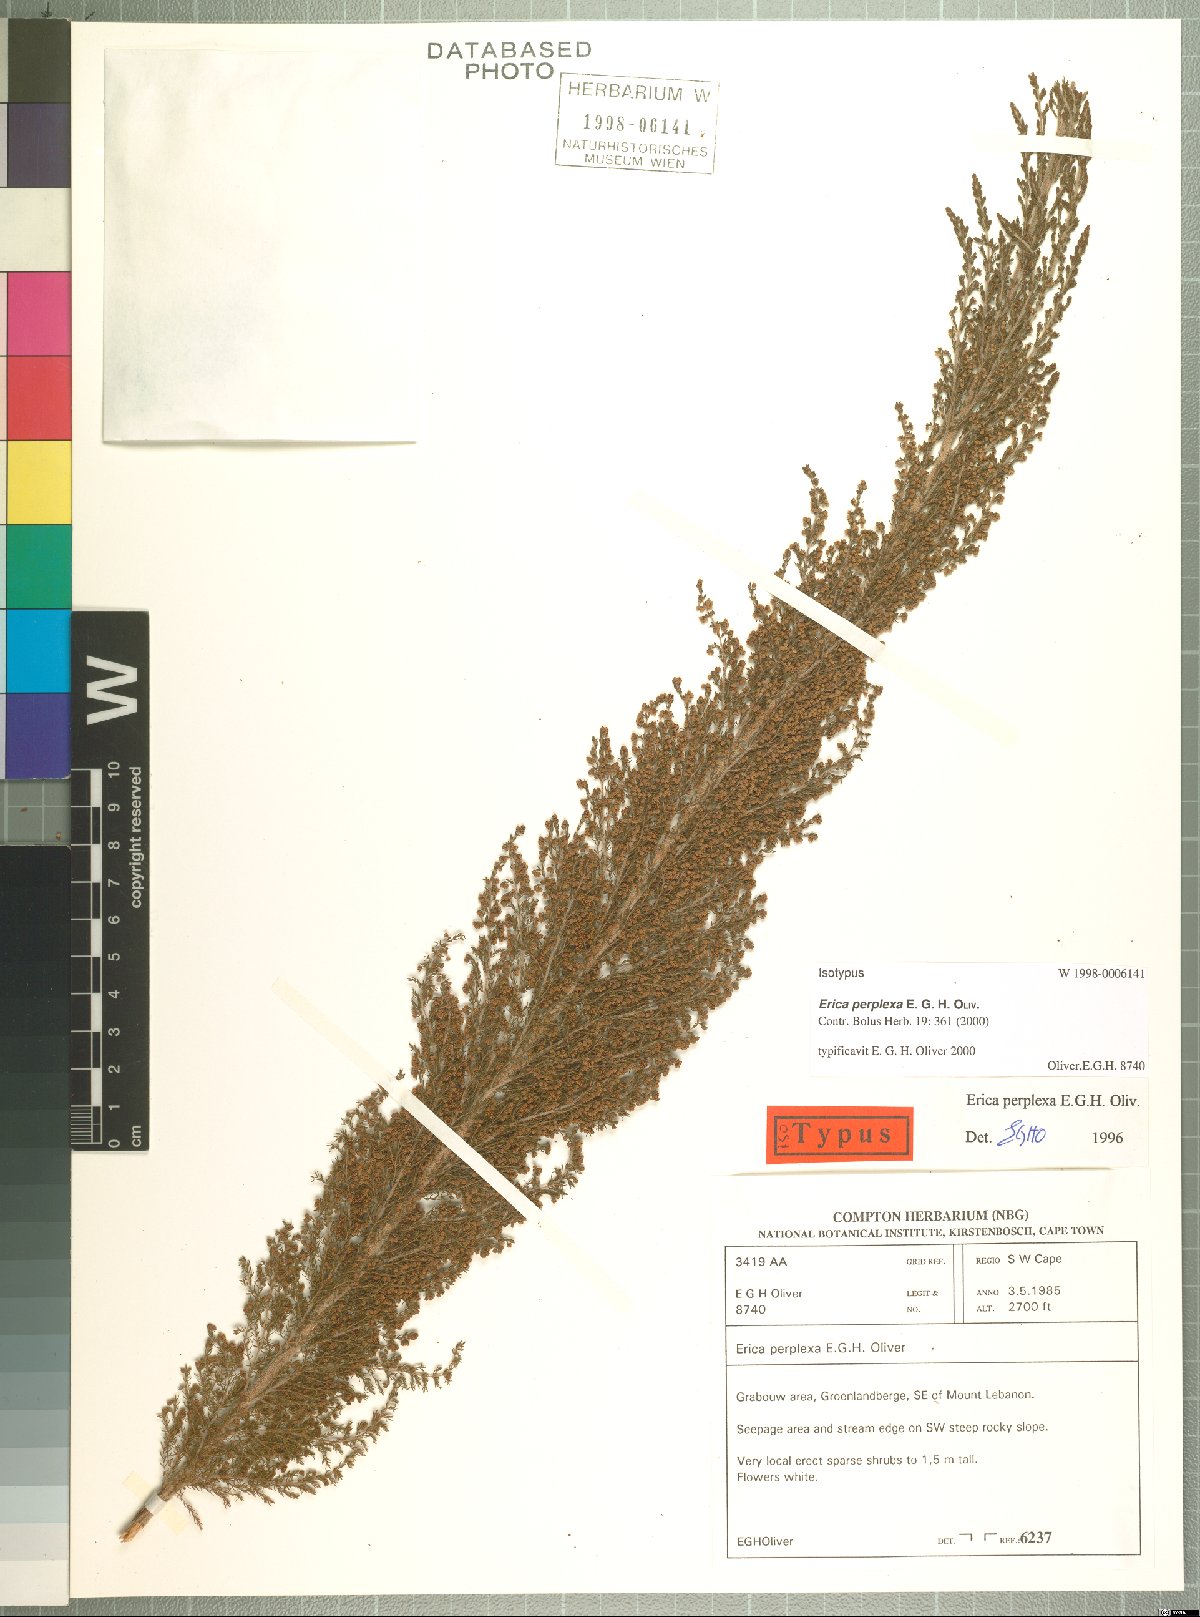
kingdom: Plantae
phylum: Tracheophyta
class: Magnoliopsida
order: Ericales
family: Ericaceae
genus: Erica
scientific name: Erica perplexa
